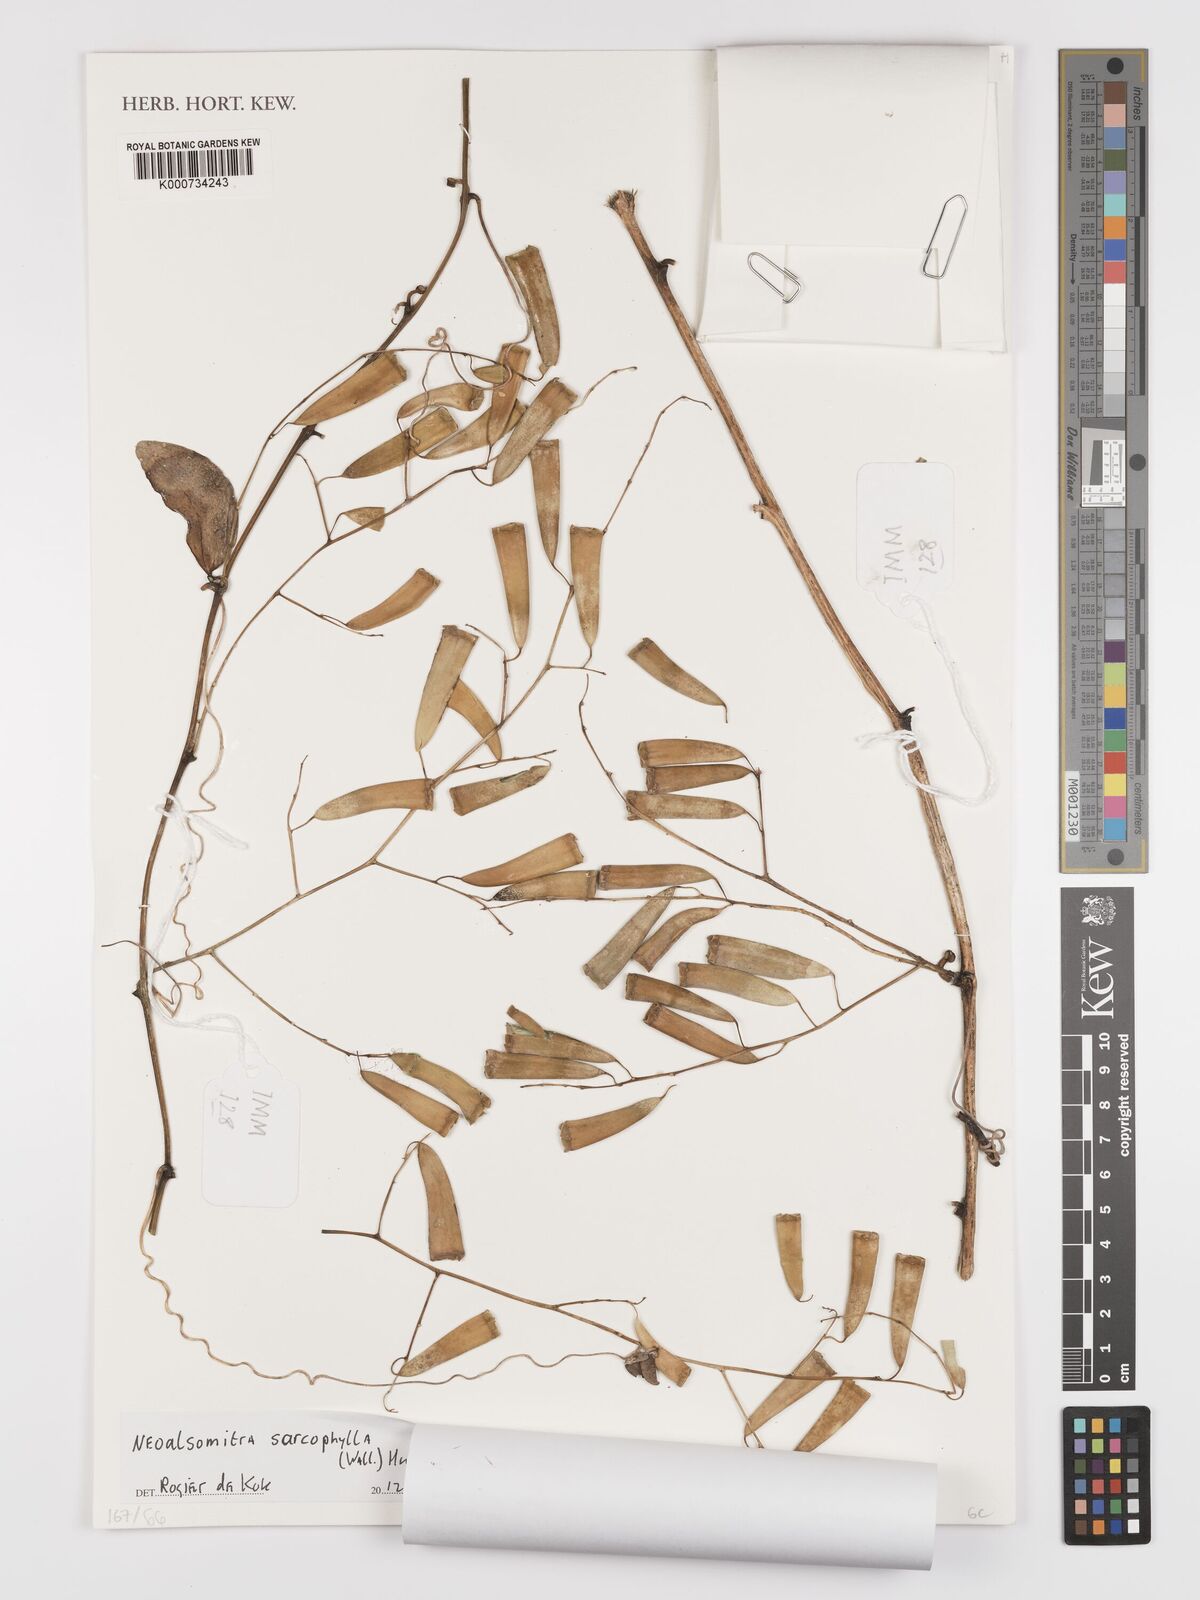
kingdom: Plantae
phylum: Tracheophyta
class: Magnoliopsida
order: Cucurbitales
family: Cucurbitaceae
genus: Neoalsomitra
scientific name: Neoalsomitra sarcophylla
